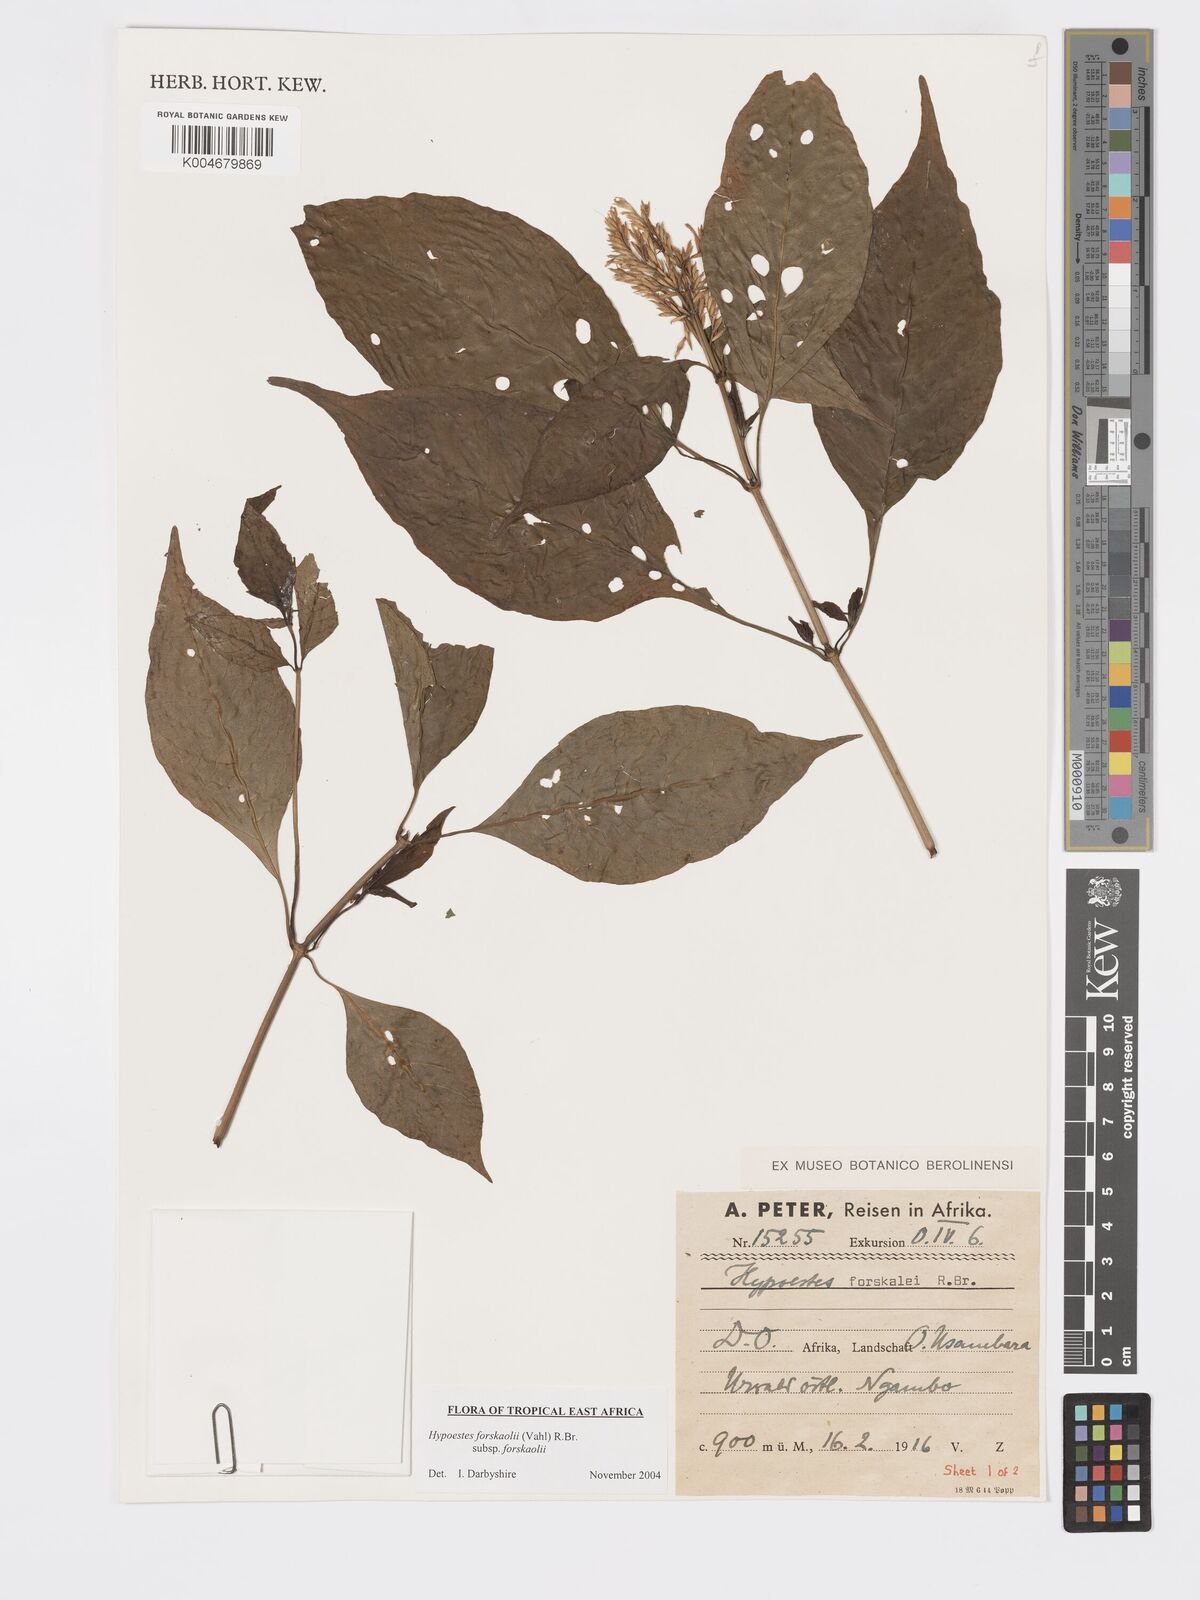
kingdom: Plantae
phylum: Tracheophyta
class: Magnoliopsida
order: Lamiales
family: Acanthaceae
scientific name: Acanthaceae
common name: Acanthaceae
